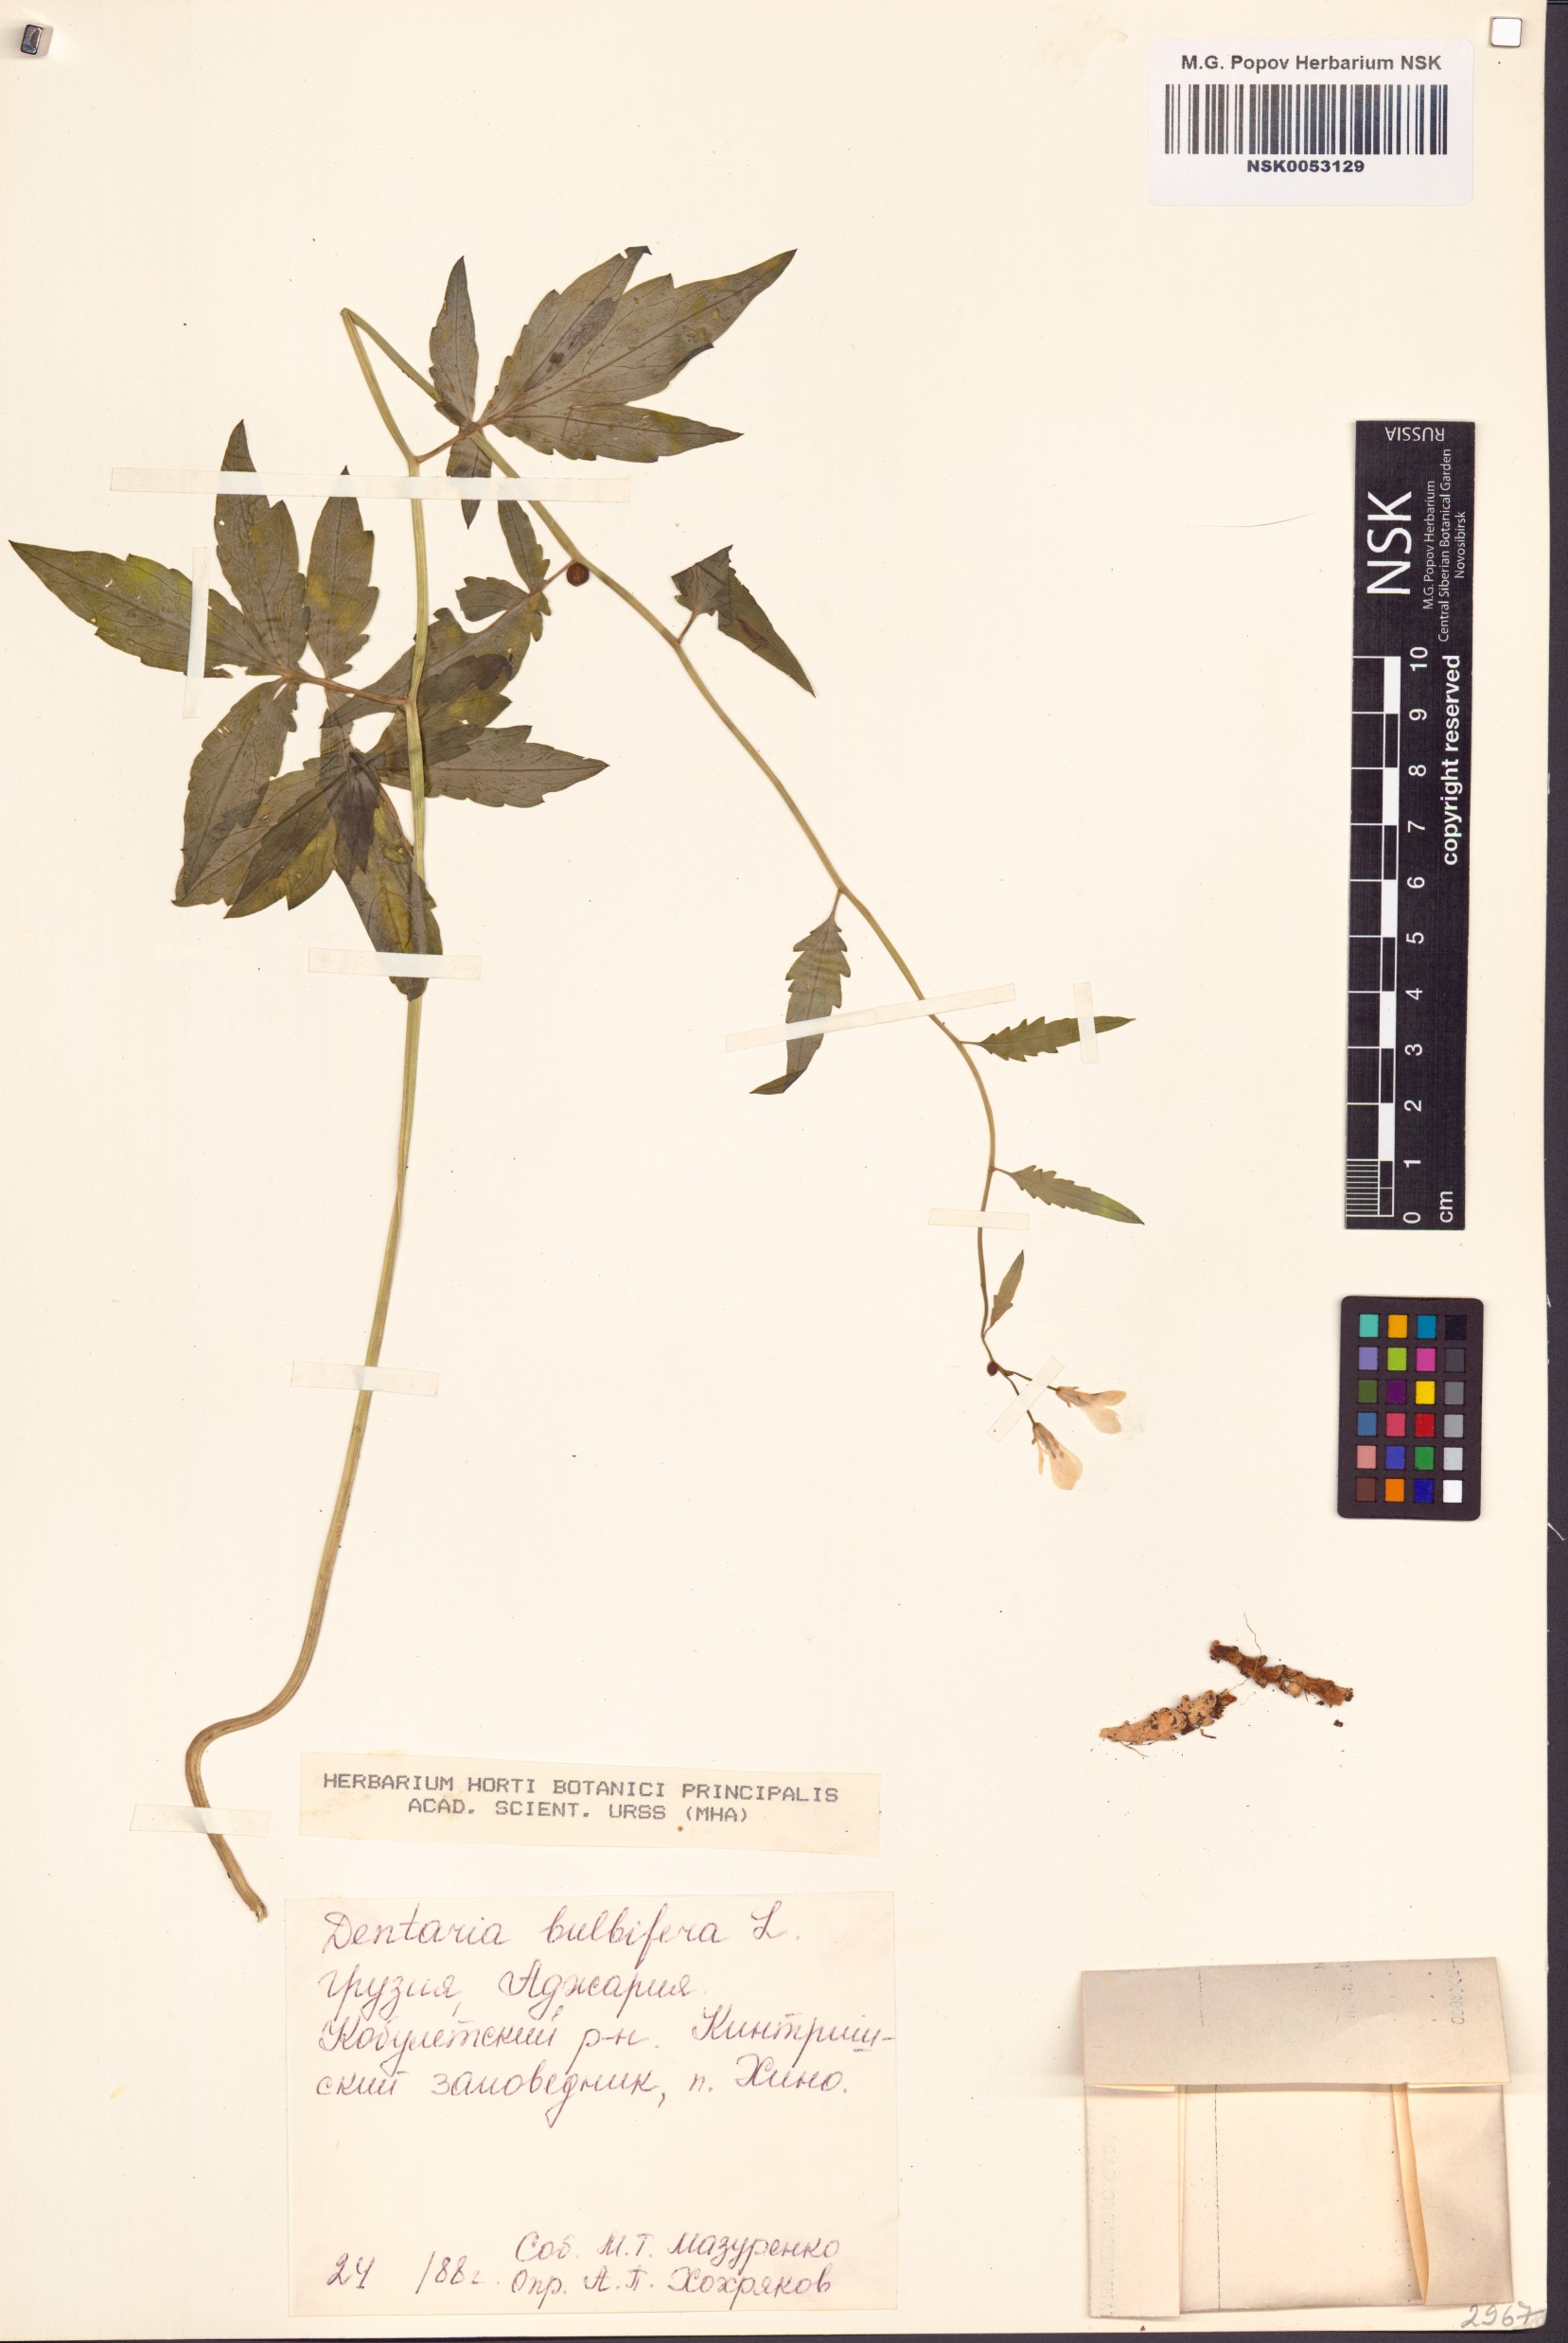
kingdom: Plantae
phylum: Tracheophyta
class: Magnoliopsida
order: Brassicales
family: Brassicaceae
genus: Cardamine
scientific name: Cardamine bulbifera
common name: Coralroot bittercress
